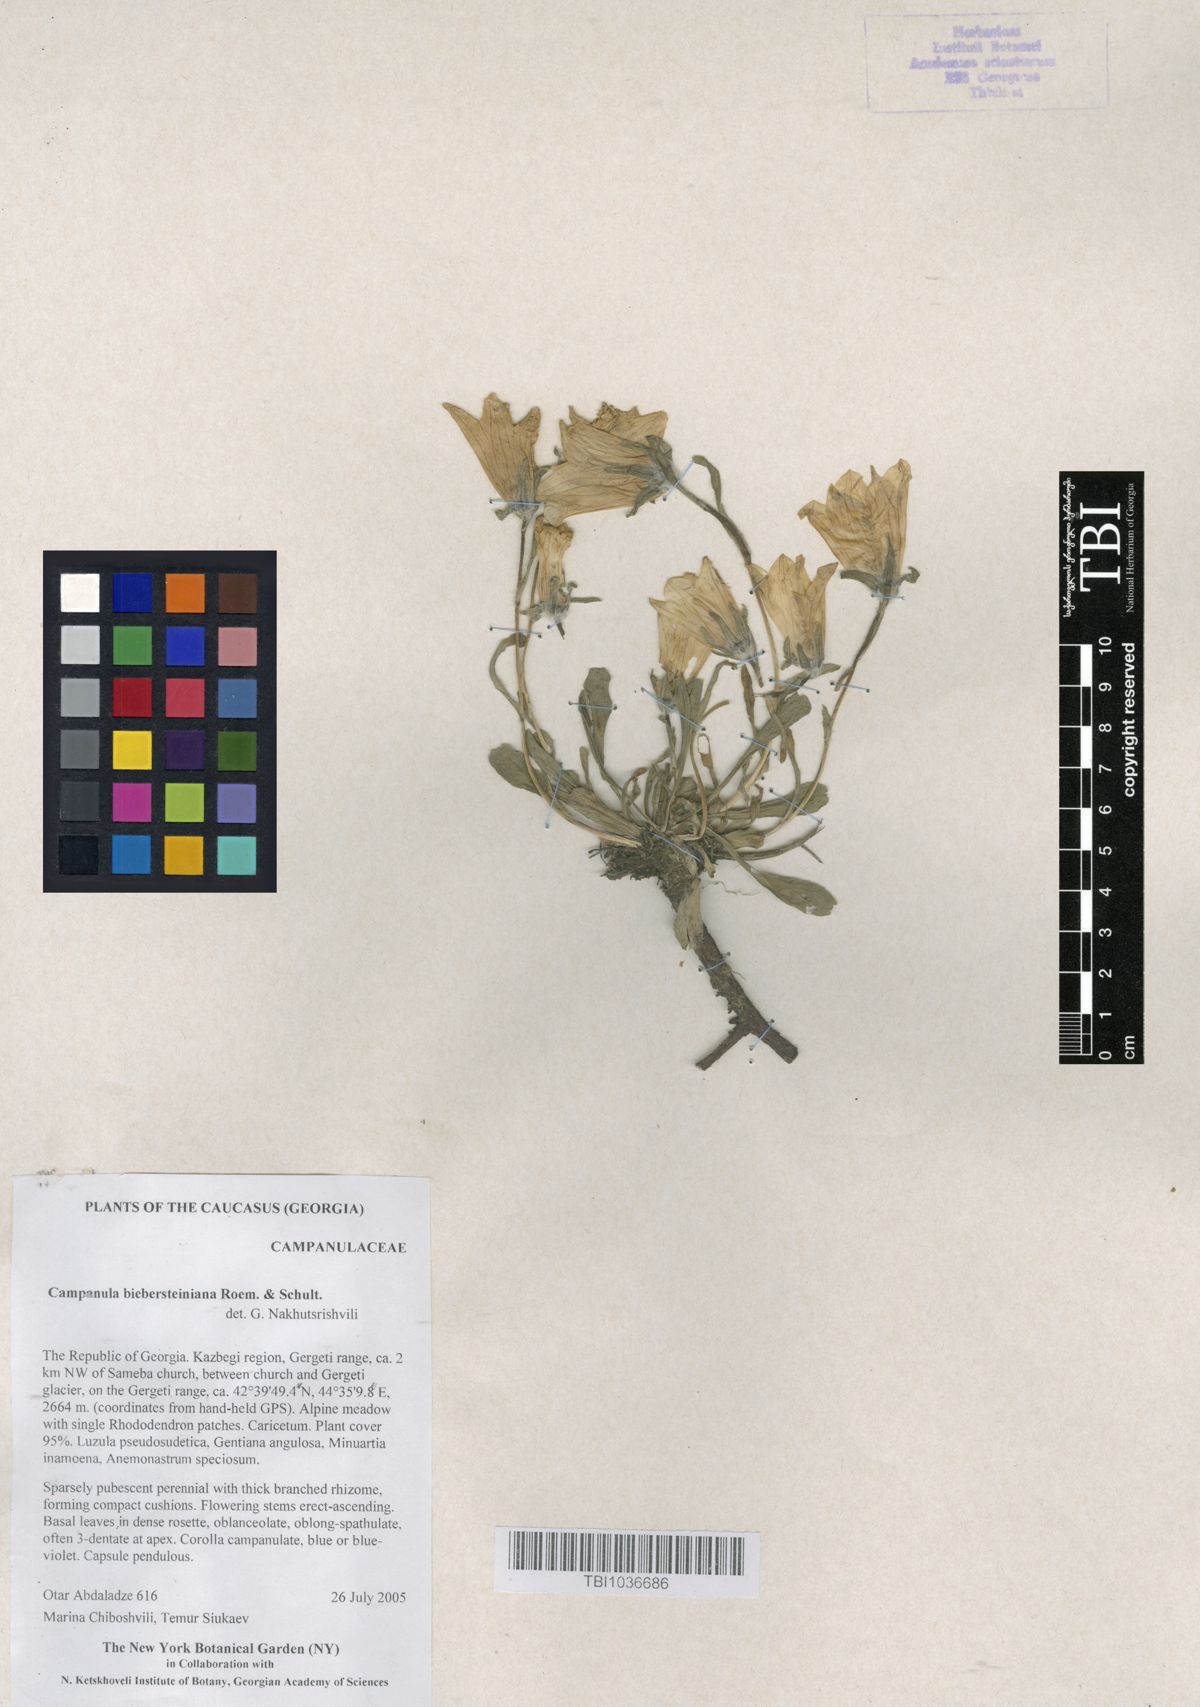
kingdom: Plantae
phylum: Tracheophyta
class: Magnoliopsida
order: Asterales
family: Campanulaceae
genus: Campanula
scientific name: Campanula tridentata
